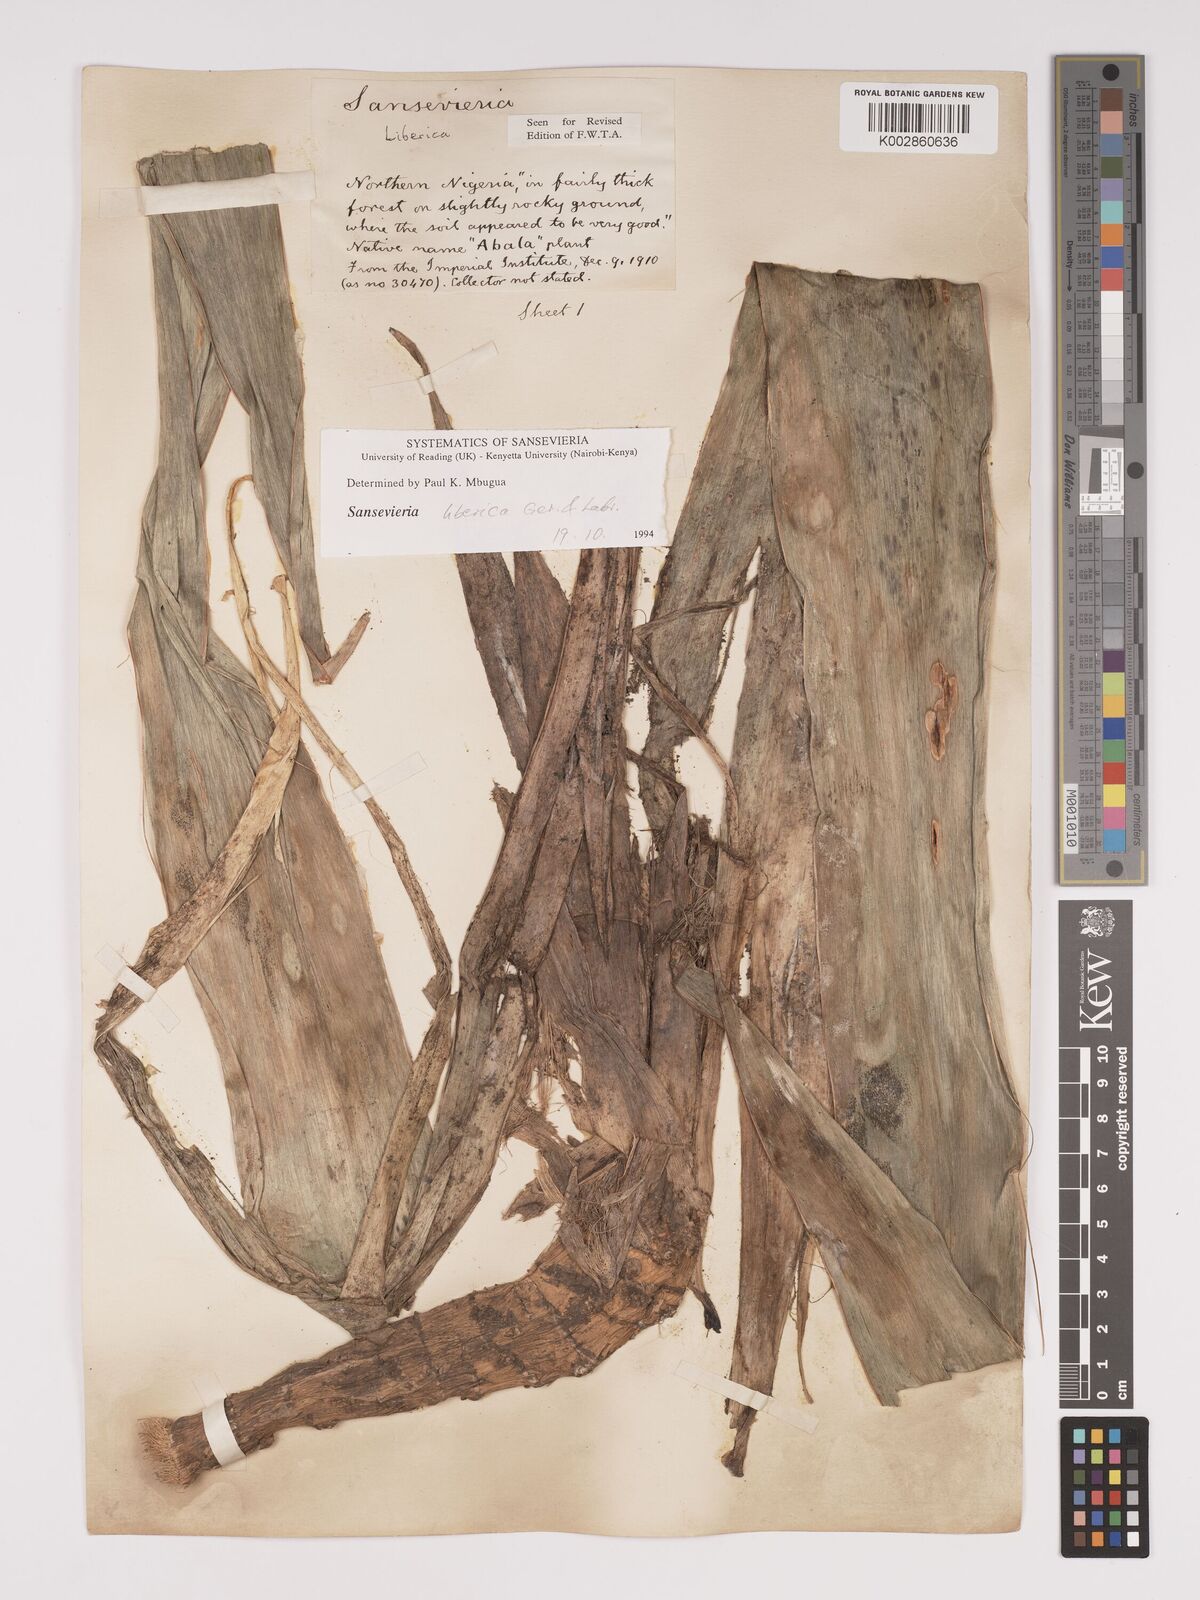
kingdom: Plantae
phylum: Tracheophyta
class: Liliopsida
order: Asparagales
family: Asparagaceae
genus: Dracaena
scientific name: Dracaena liberica
